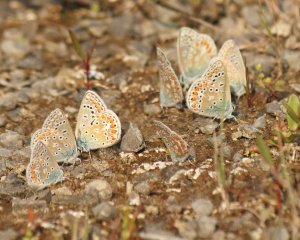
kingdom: Animalia
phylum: Arthropoda
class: Insecta
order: Lepidoptera
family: Lycaenidae
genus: Polyommatus
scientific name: Polyommatus icarus
